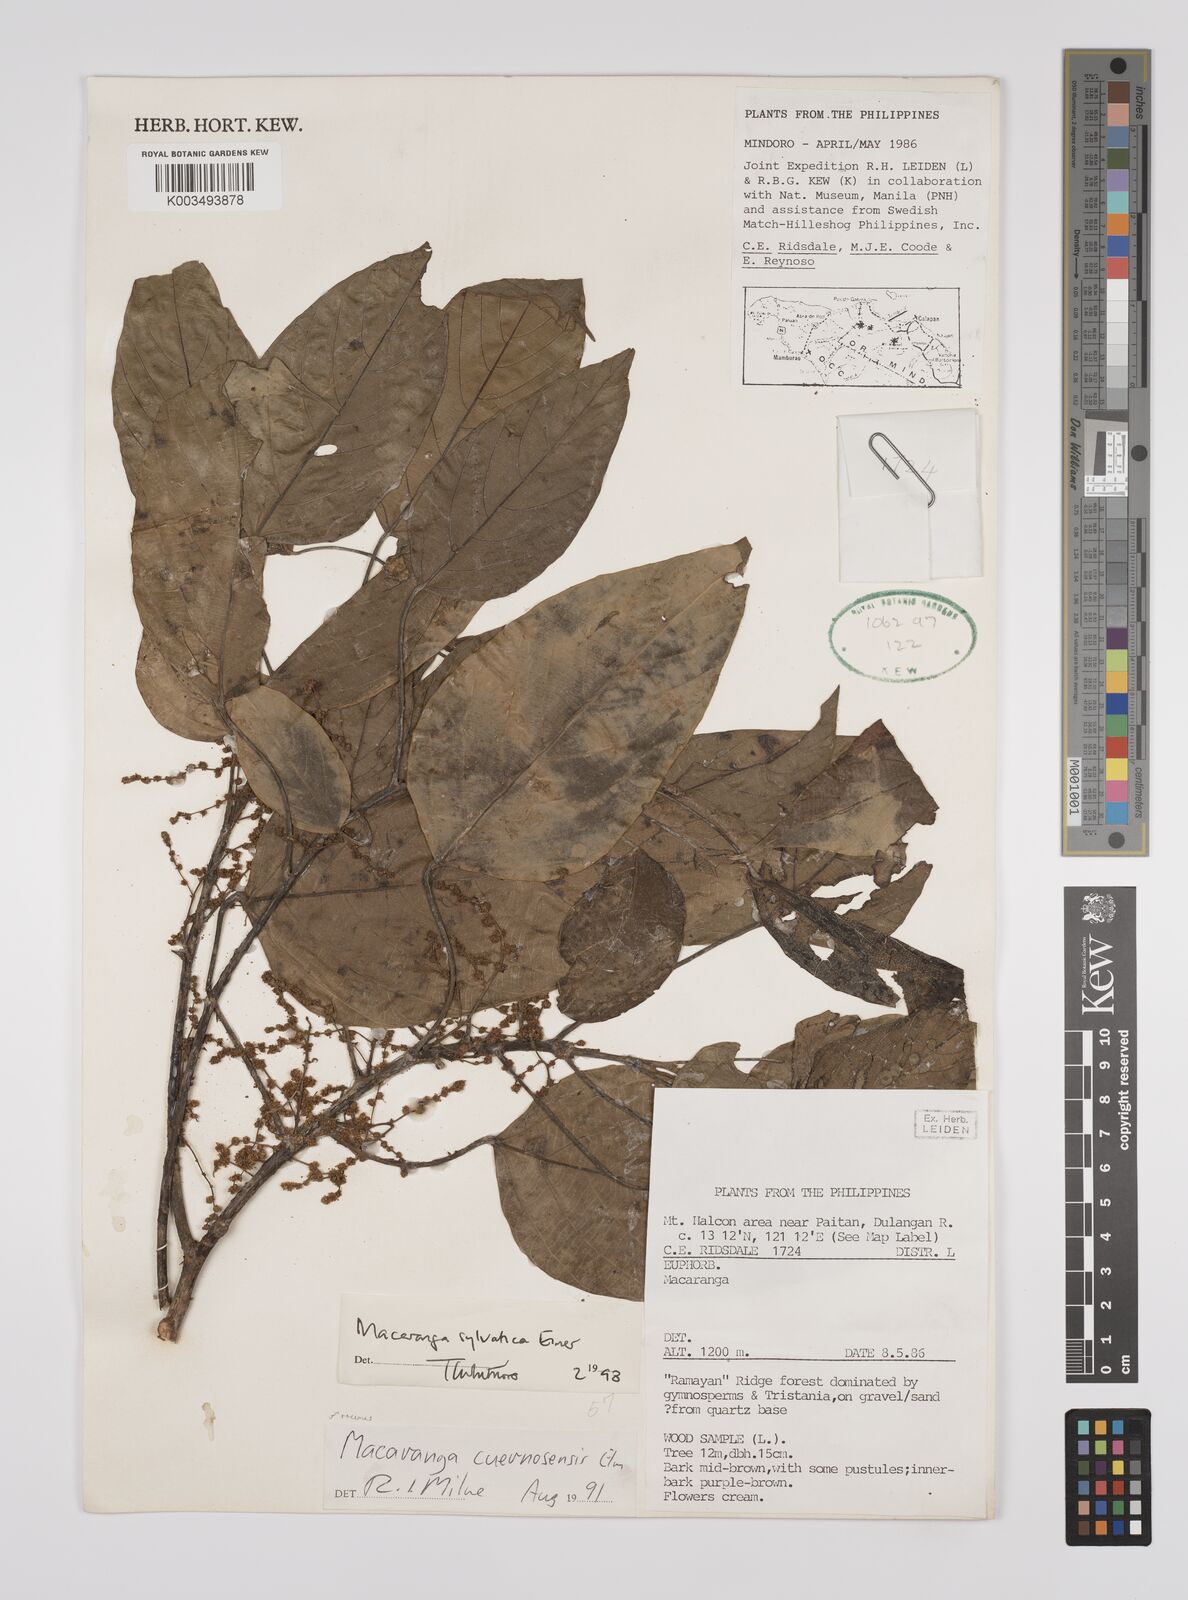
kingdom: Plantae
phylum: Tracheophyta
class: Magnoliopsida
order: Malpighiales
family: Euphorbiaceae
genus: Macaranga
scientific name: Macaranga sylvatica
